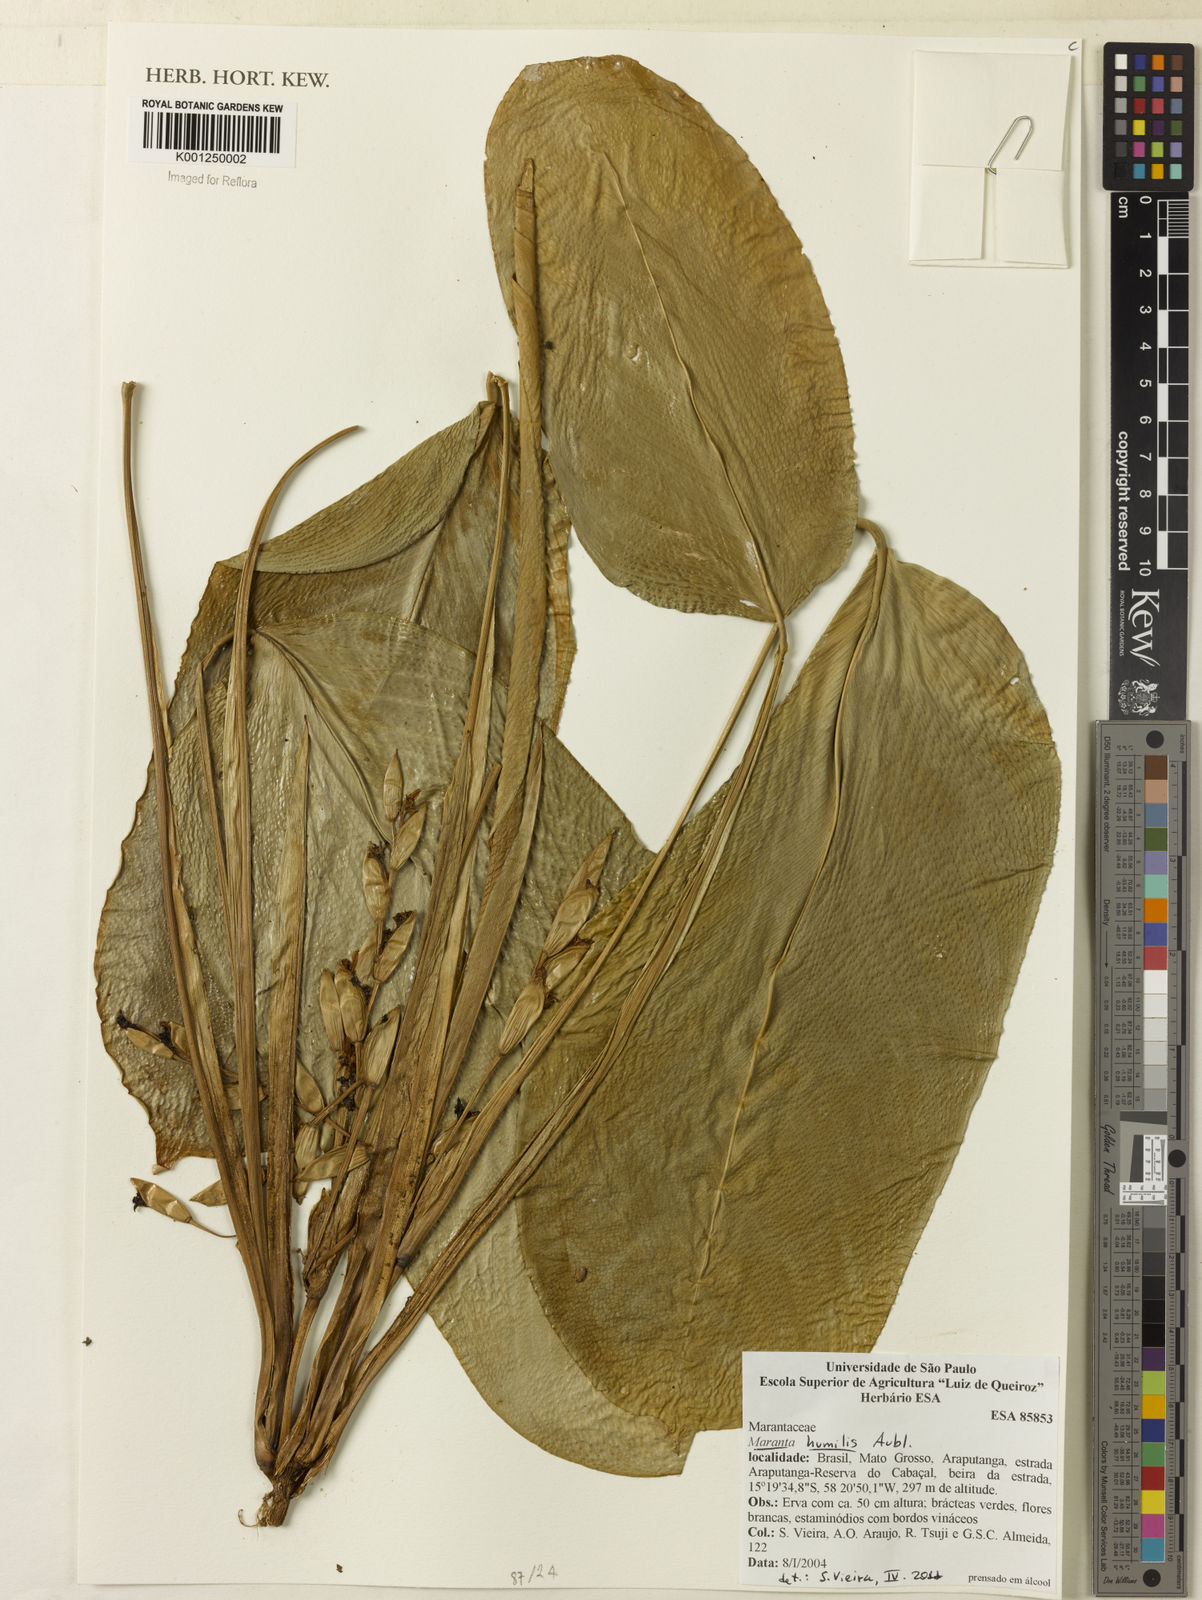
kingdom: Plantae
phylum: Tracheophyta
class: Liliopsida
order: Zingiberales
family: Marantaceae
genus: Maranta
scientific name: Maranta humilis
